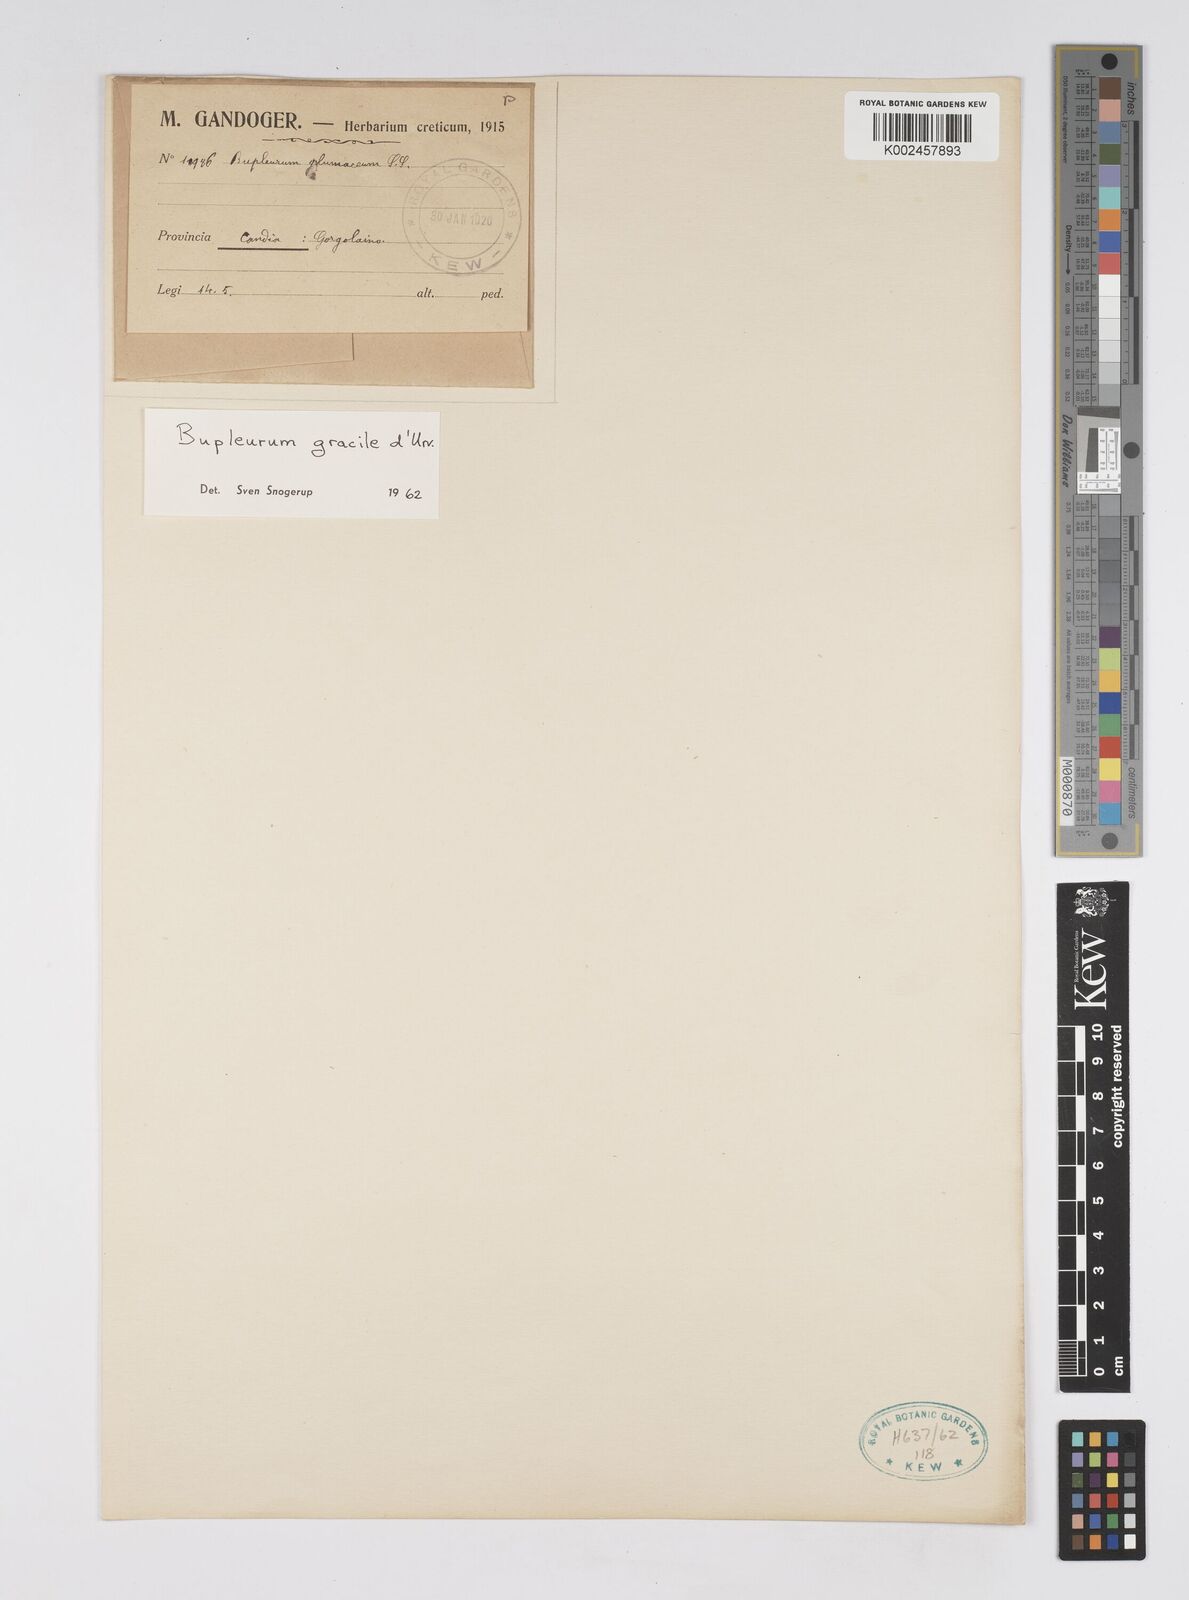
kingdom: Plantae
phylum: Tracheophyta
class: Magnoliopsida
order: Apiales
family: Apiaceae
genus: Bupleurum
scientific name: Bupleurum gracile
